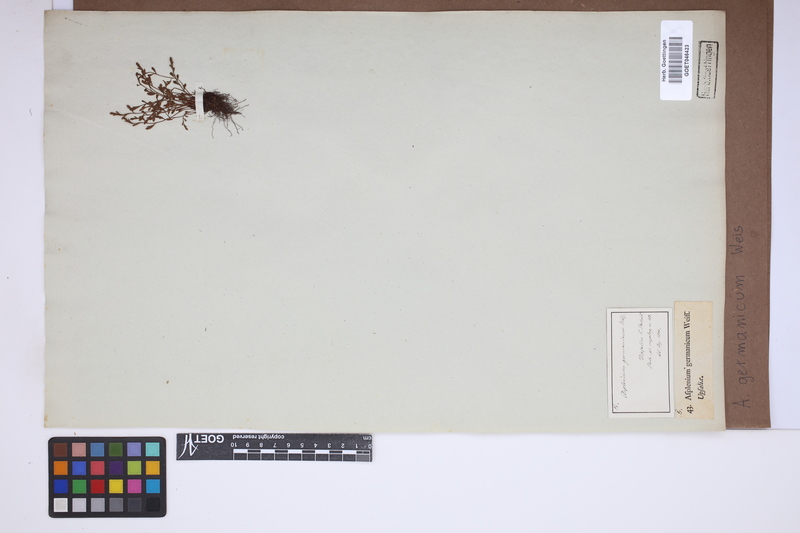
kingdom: Plantae
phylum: Tracheophyta
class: Polypodiopsida
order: Polypodiales
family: Aspleniaceae
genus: Asplenium
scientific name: Asplenium
